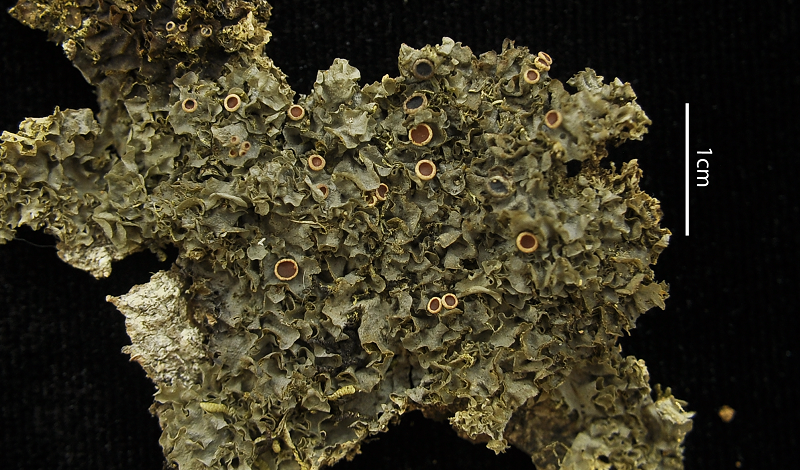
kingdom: Fungi
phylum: Ascomycota
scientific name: Ascomycota
